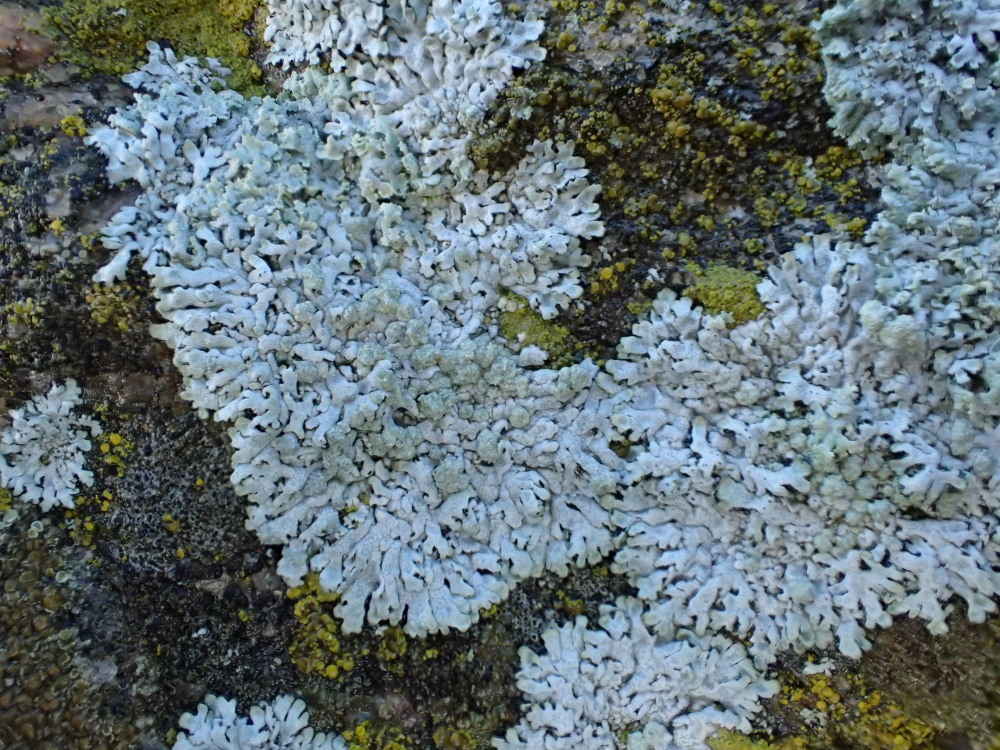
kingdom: Fungi
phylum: Ascomycota
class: Lecanoromycetes
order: Caliciales
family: Physciaceae
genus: Physcia
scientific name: Physcia caesia
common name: blågrå rosetlav
